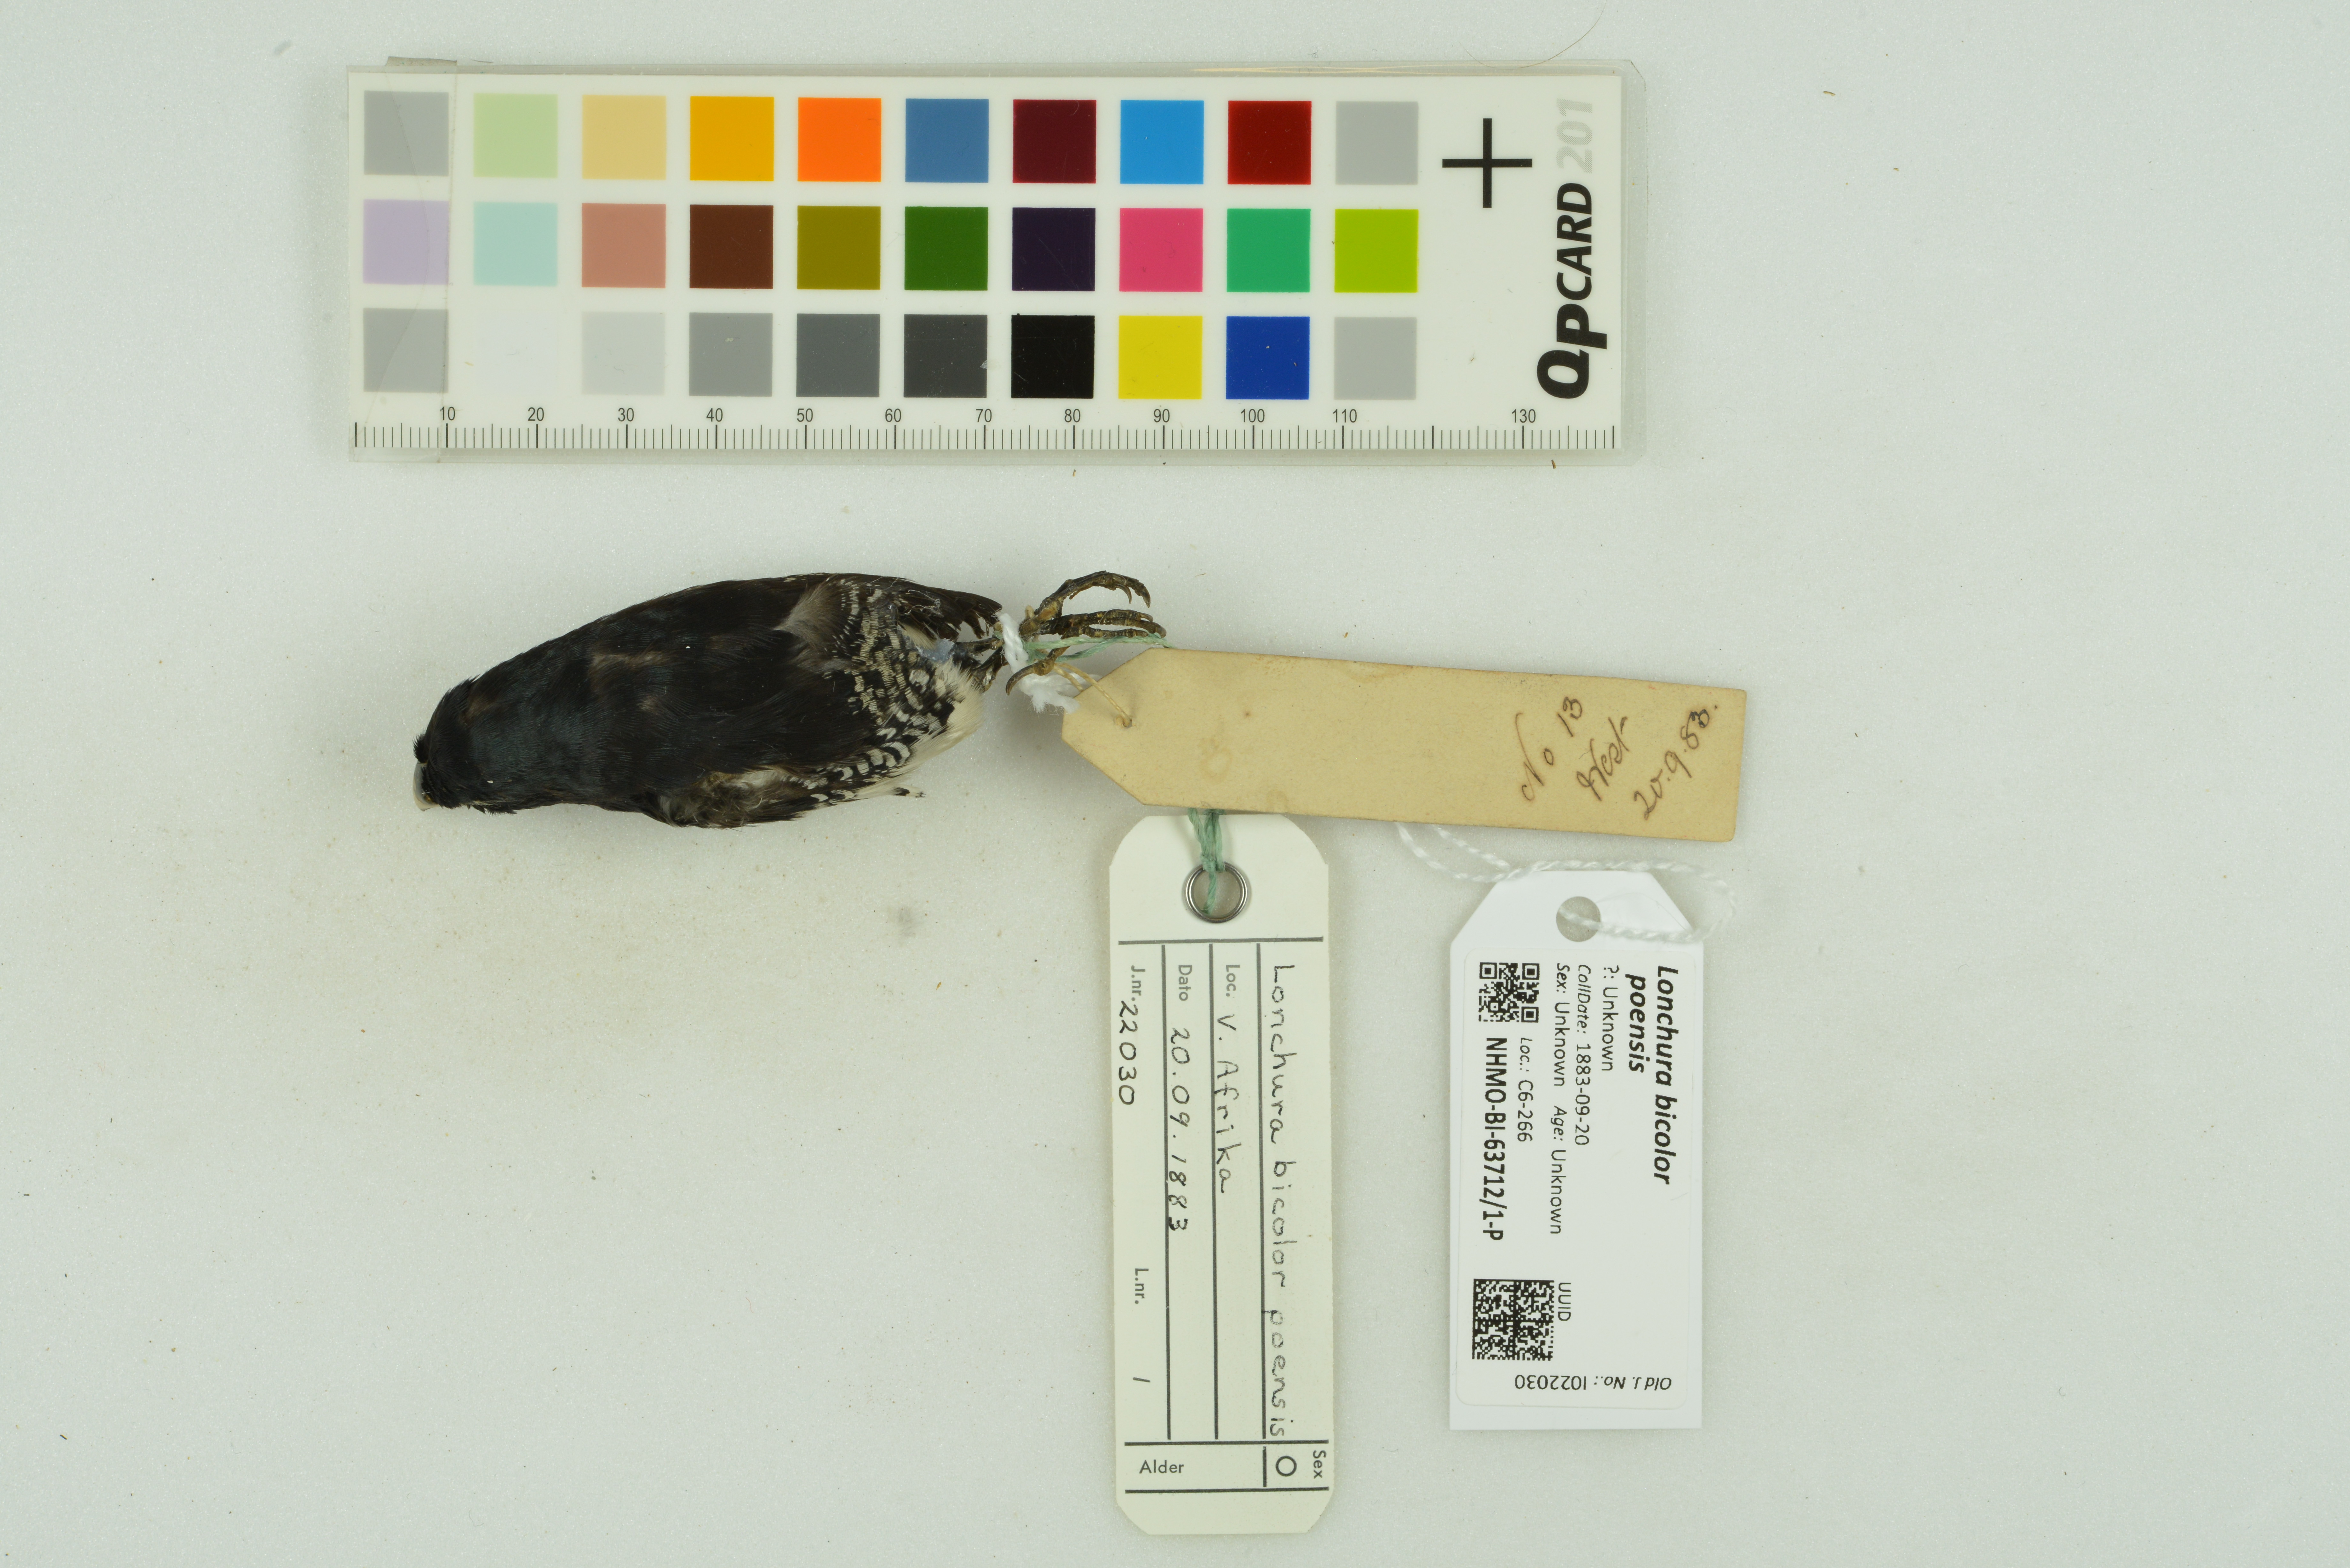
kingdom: Animalia
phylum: Chordata
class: Aves
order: Passeriformes
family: Estrildidae
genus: Lonchura
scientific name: Lonchura bicolor
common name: Black-and-white mannikin
